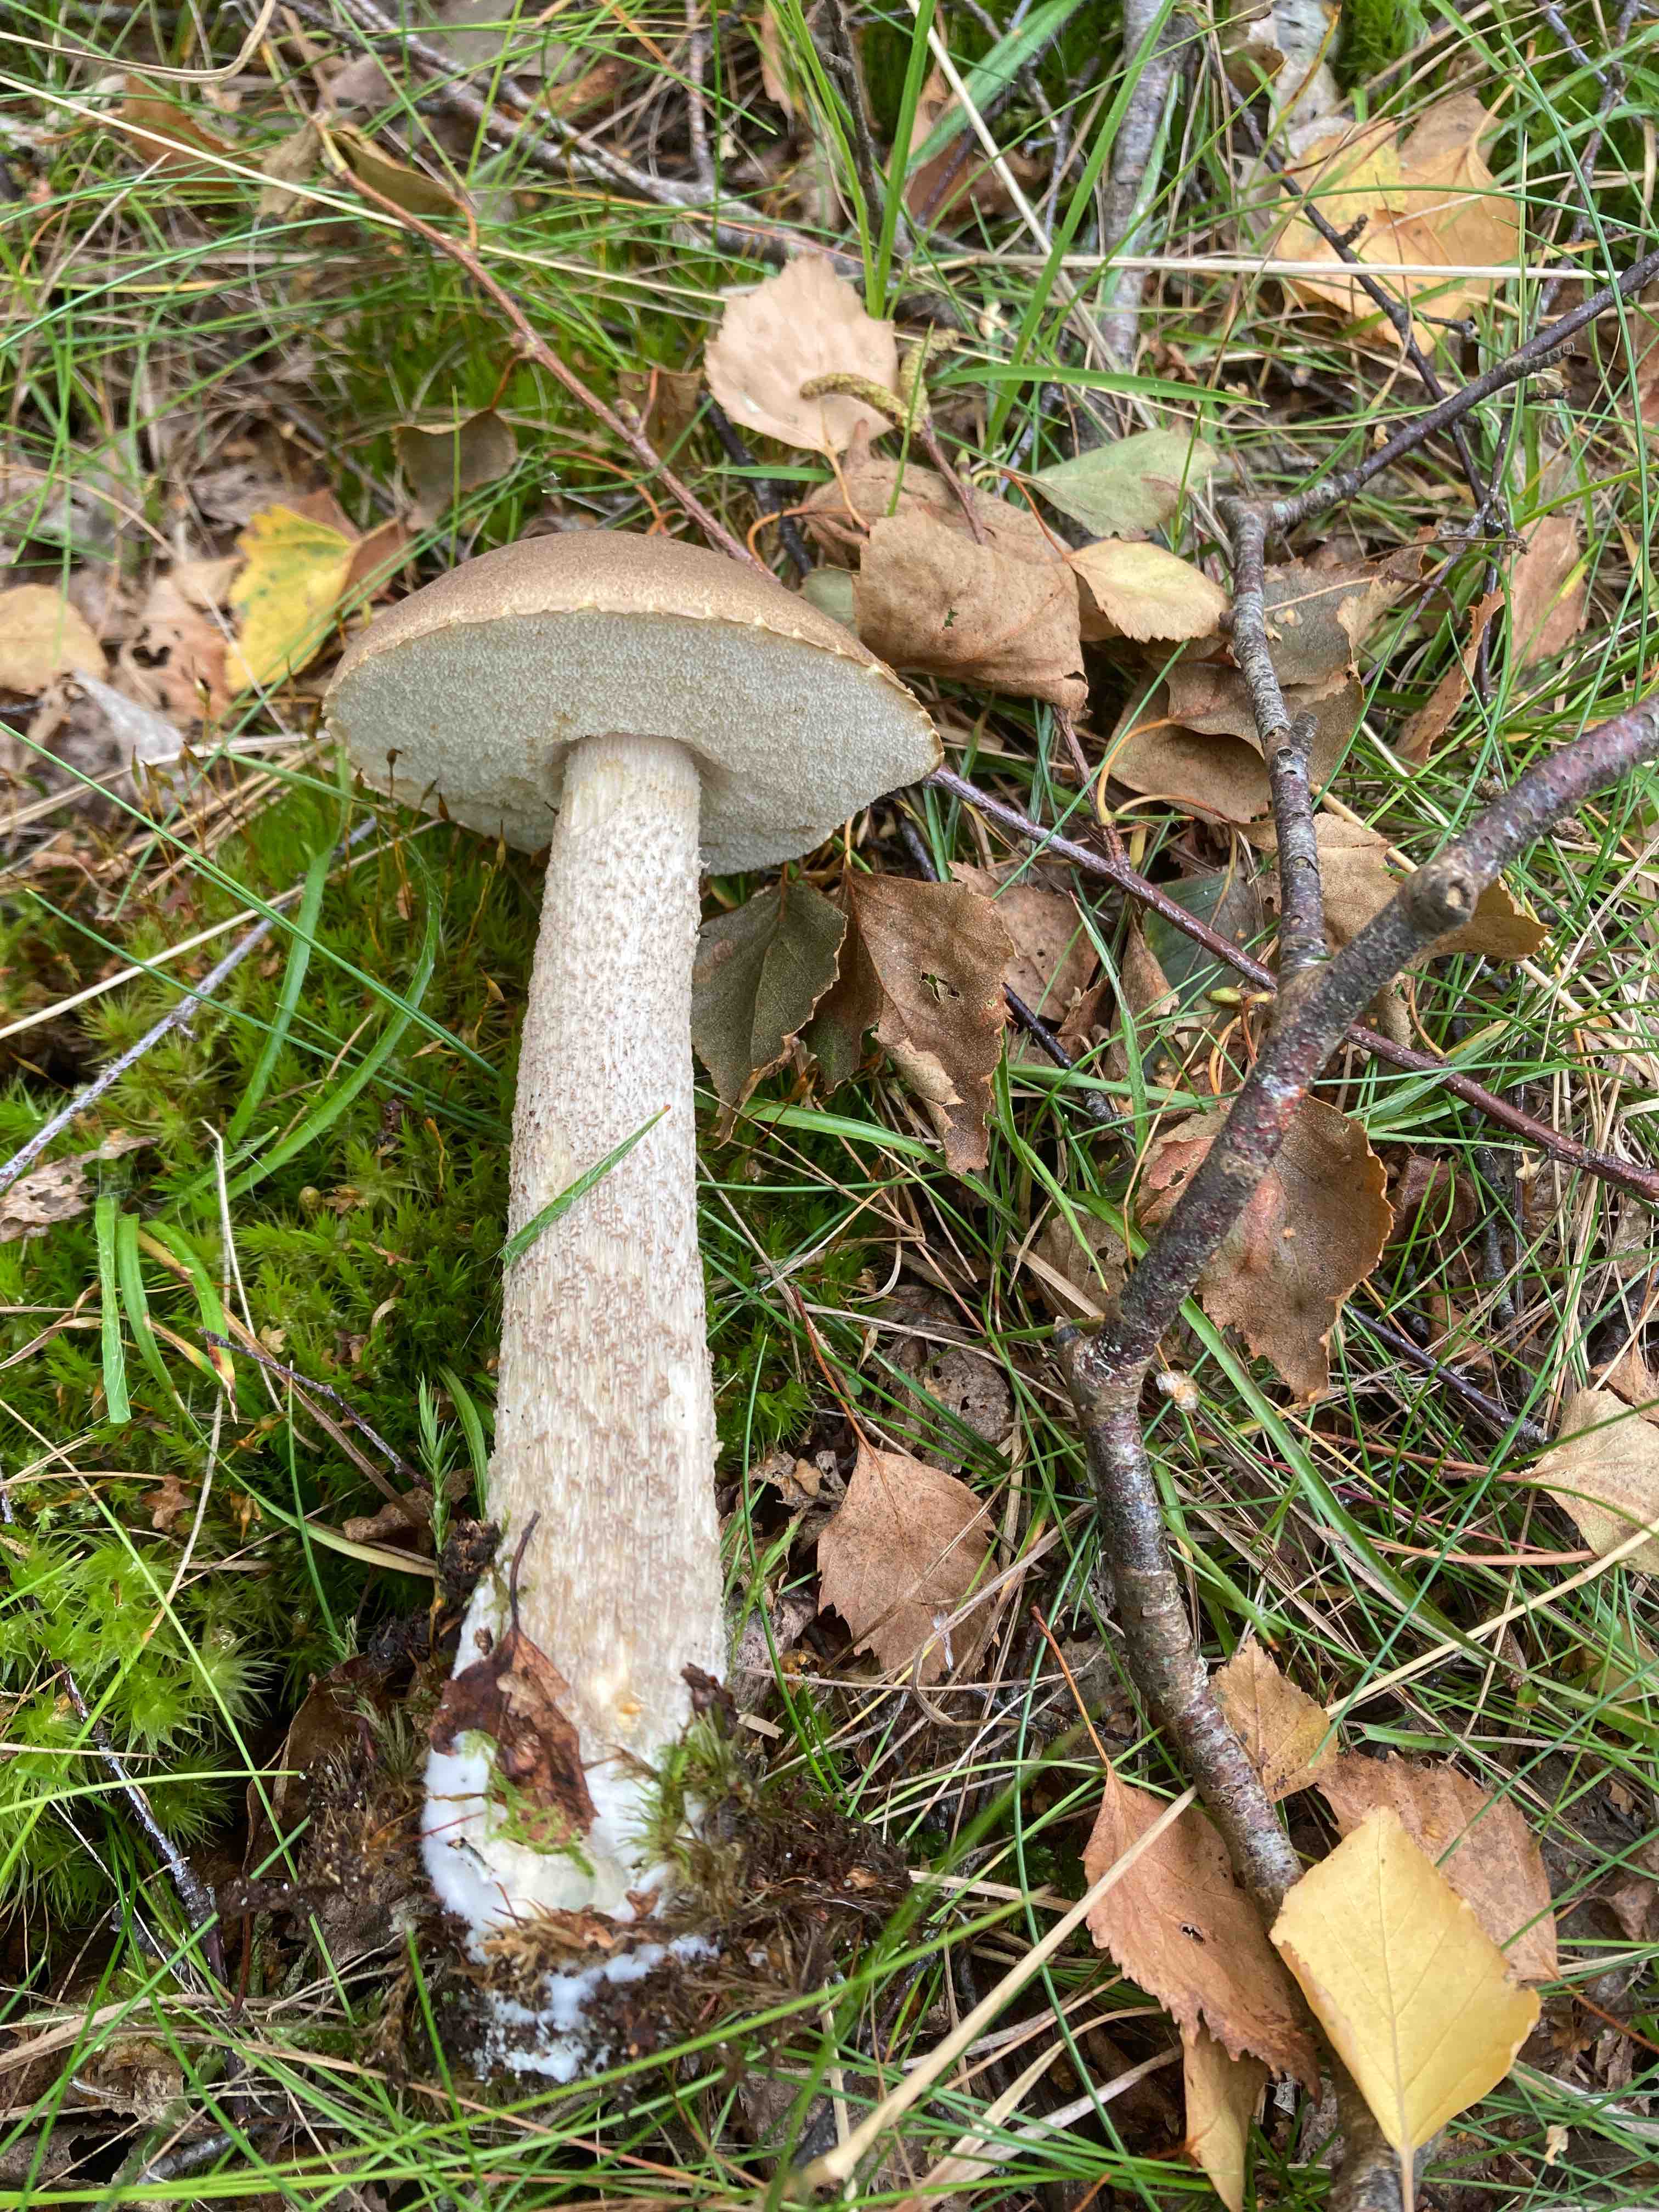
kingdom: Fungi
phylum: Basidiomycota
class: Agaricomycetes
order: Boletales
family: Boletaceae
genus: Leccinum
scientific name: Leccinum
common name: skælrørhat
